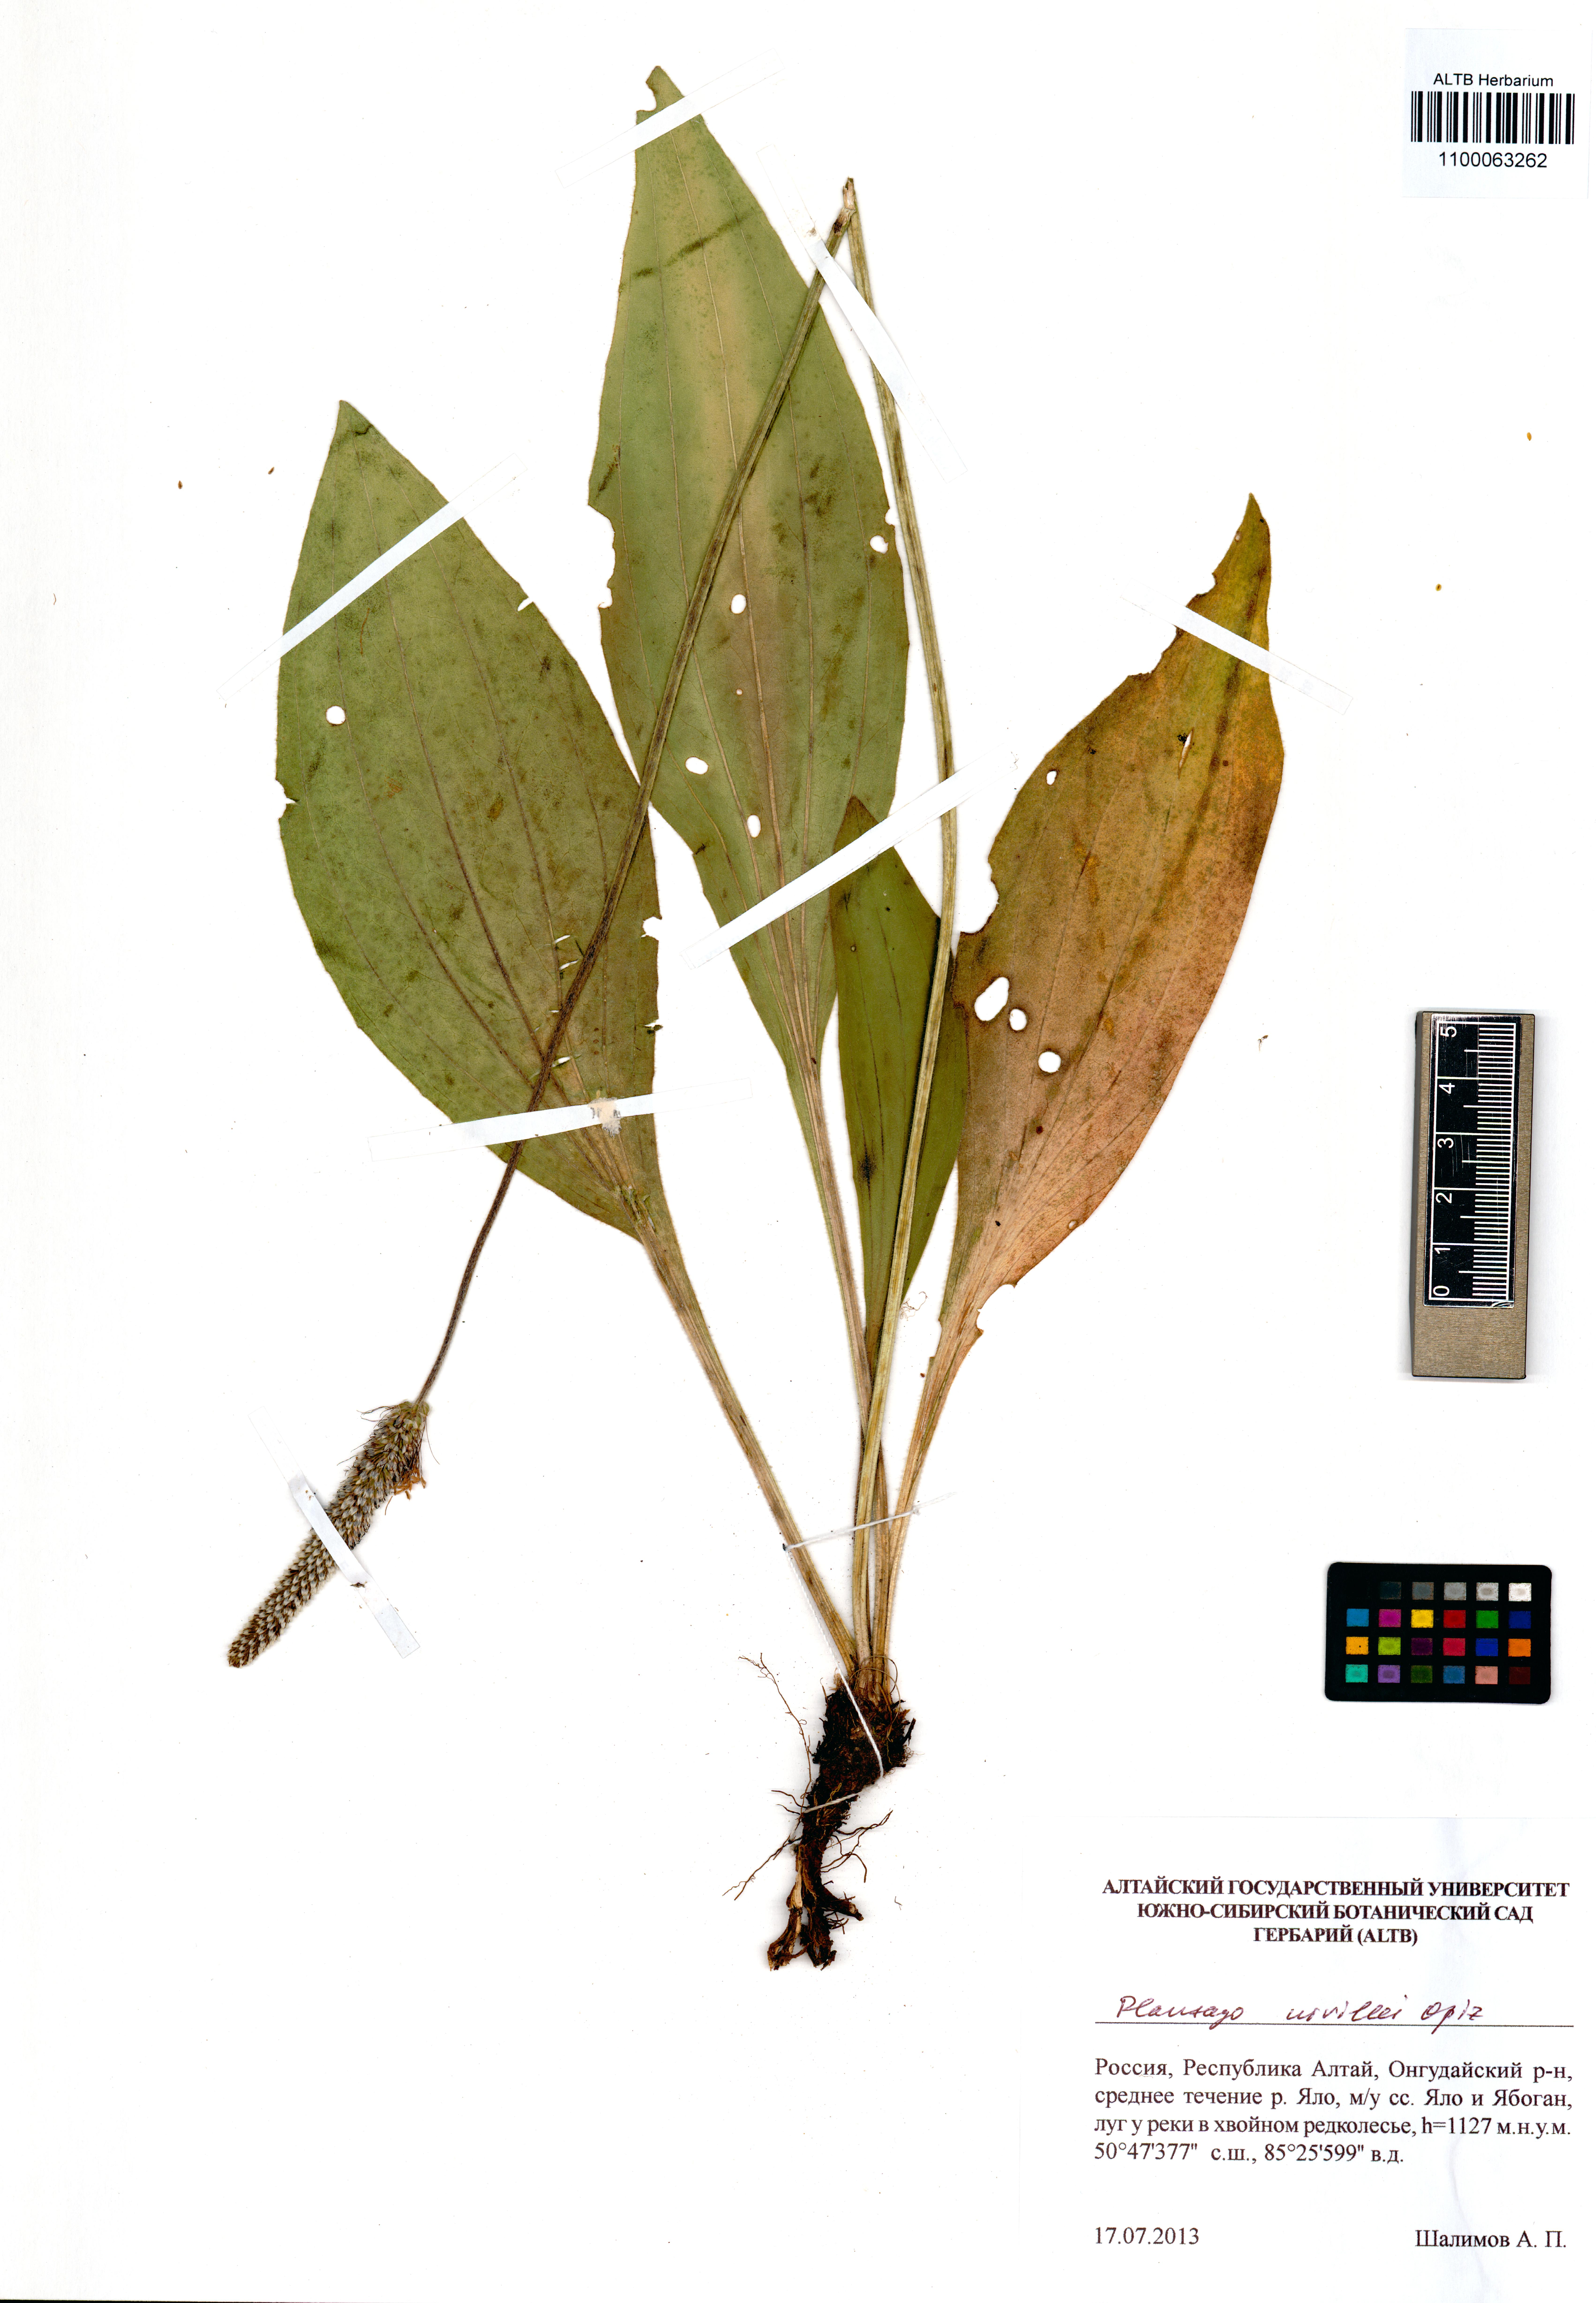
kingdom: Plantae
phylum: Tracheophyta
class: Magnoliopsida
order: Lamiales
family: Plantaginaceae
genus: Plantago
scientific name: Plantago urvillei
